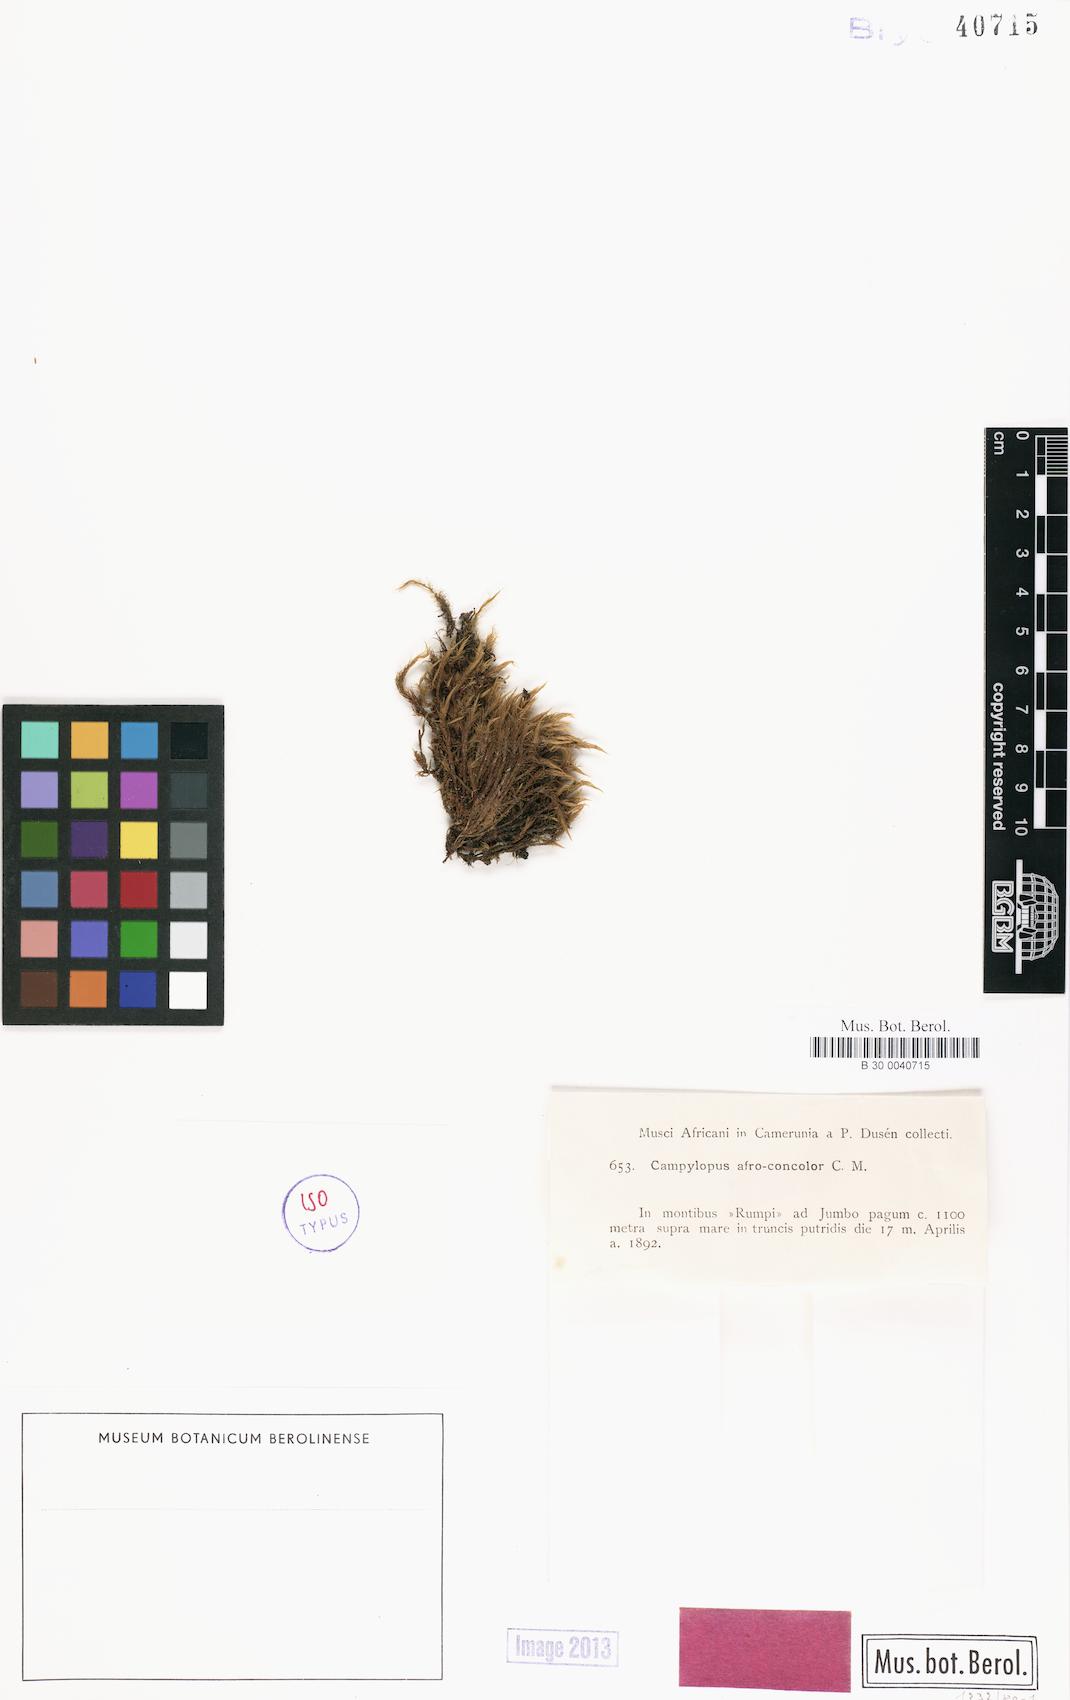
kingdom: Plantae
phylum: Bryophyta
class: Bryopsida
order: Dicranales
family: Leucobryaceae
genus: Campylopus
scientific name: Campylopus savannarum
